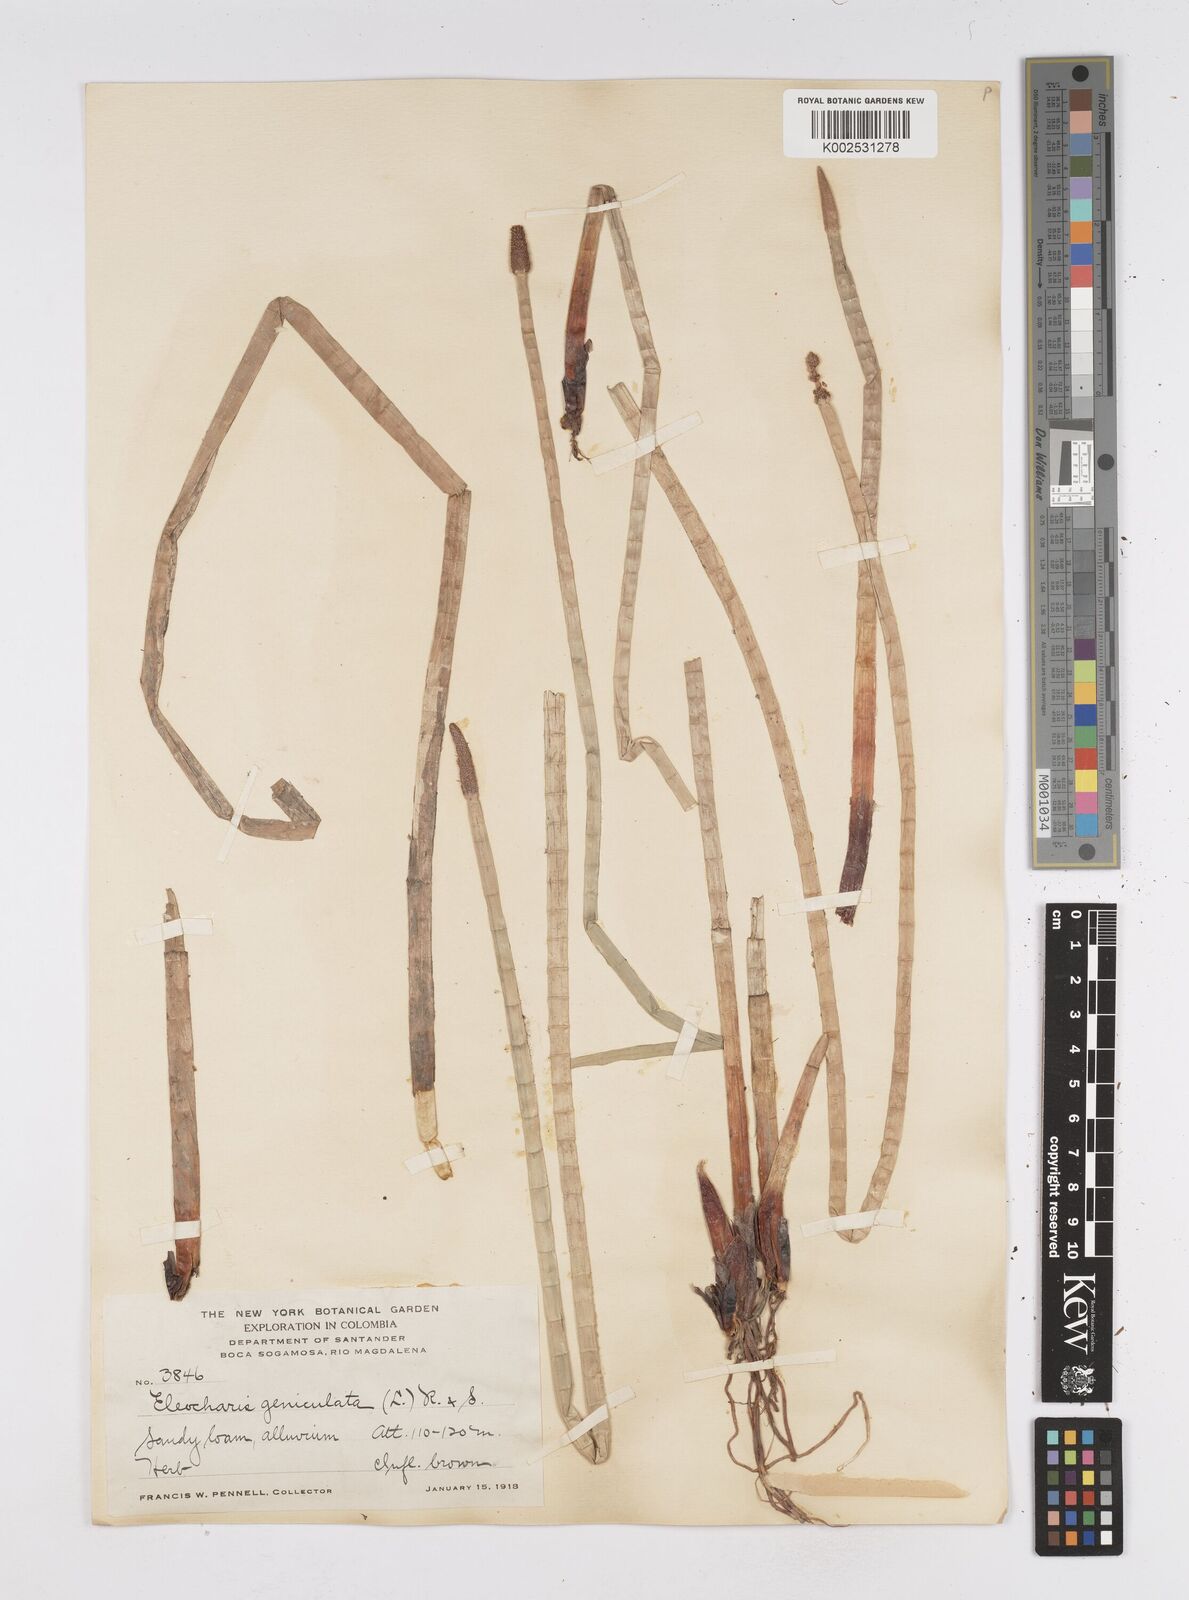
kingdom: Plantae
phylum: Tracheophyta
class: Liliopsida
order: Poales
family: Cyperaceae
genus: Eleocharis
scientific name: Eleocharis elegans
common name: Elegant spike-rush
